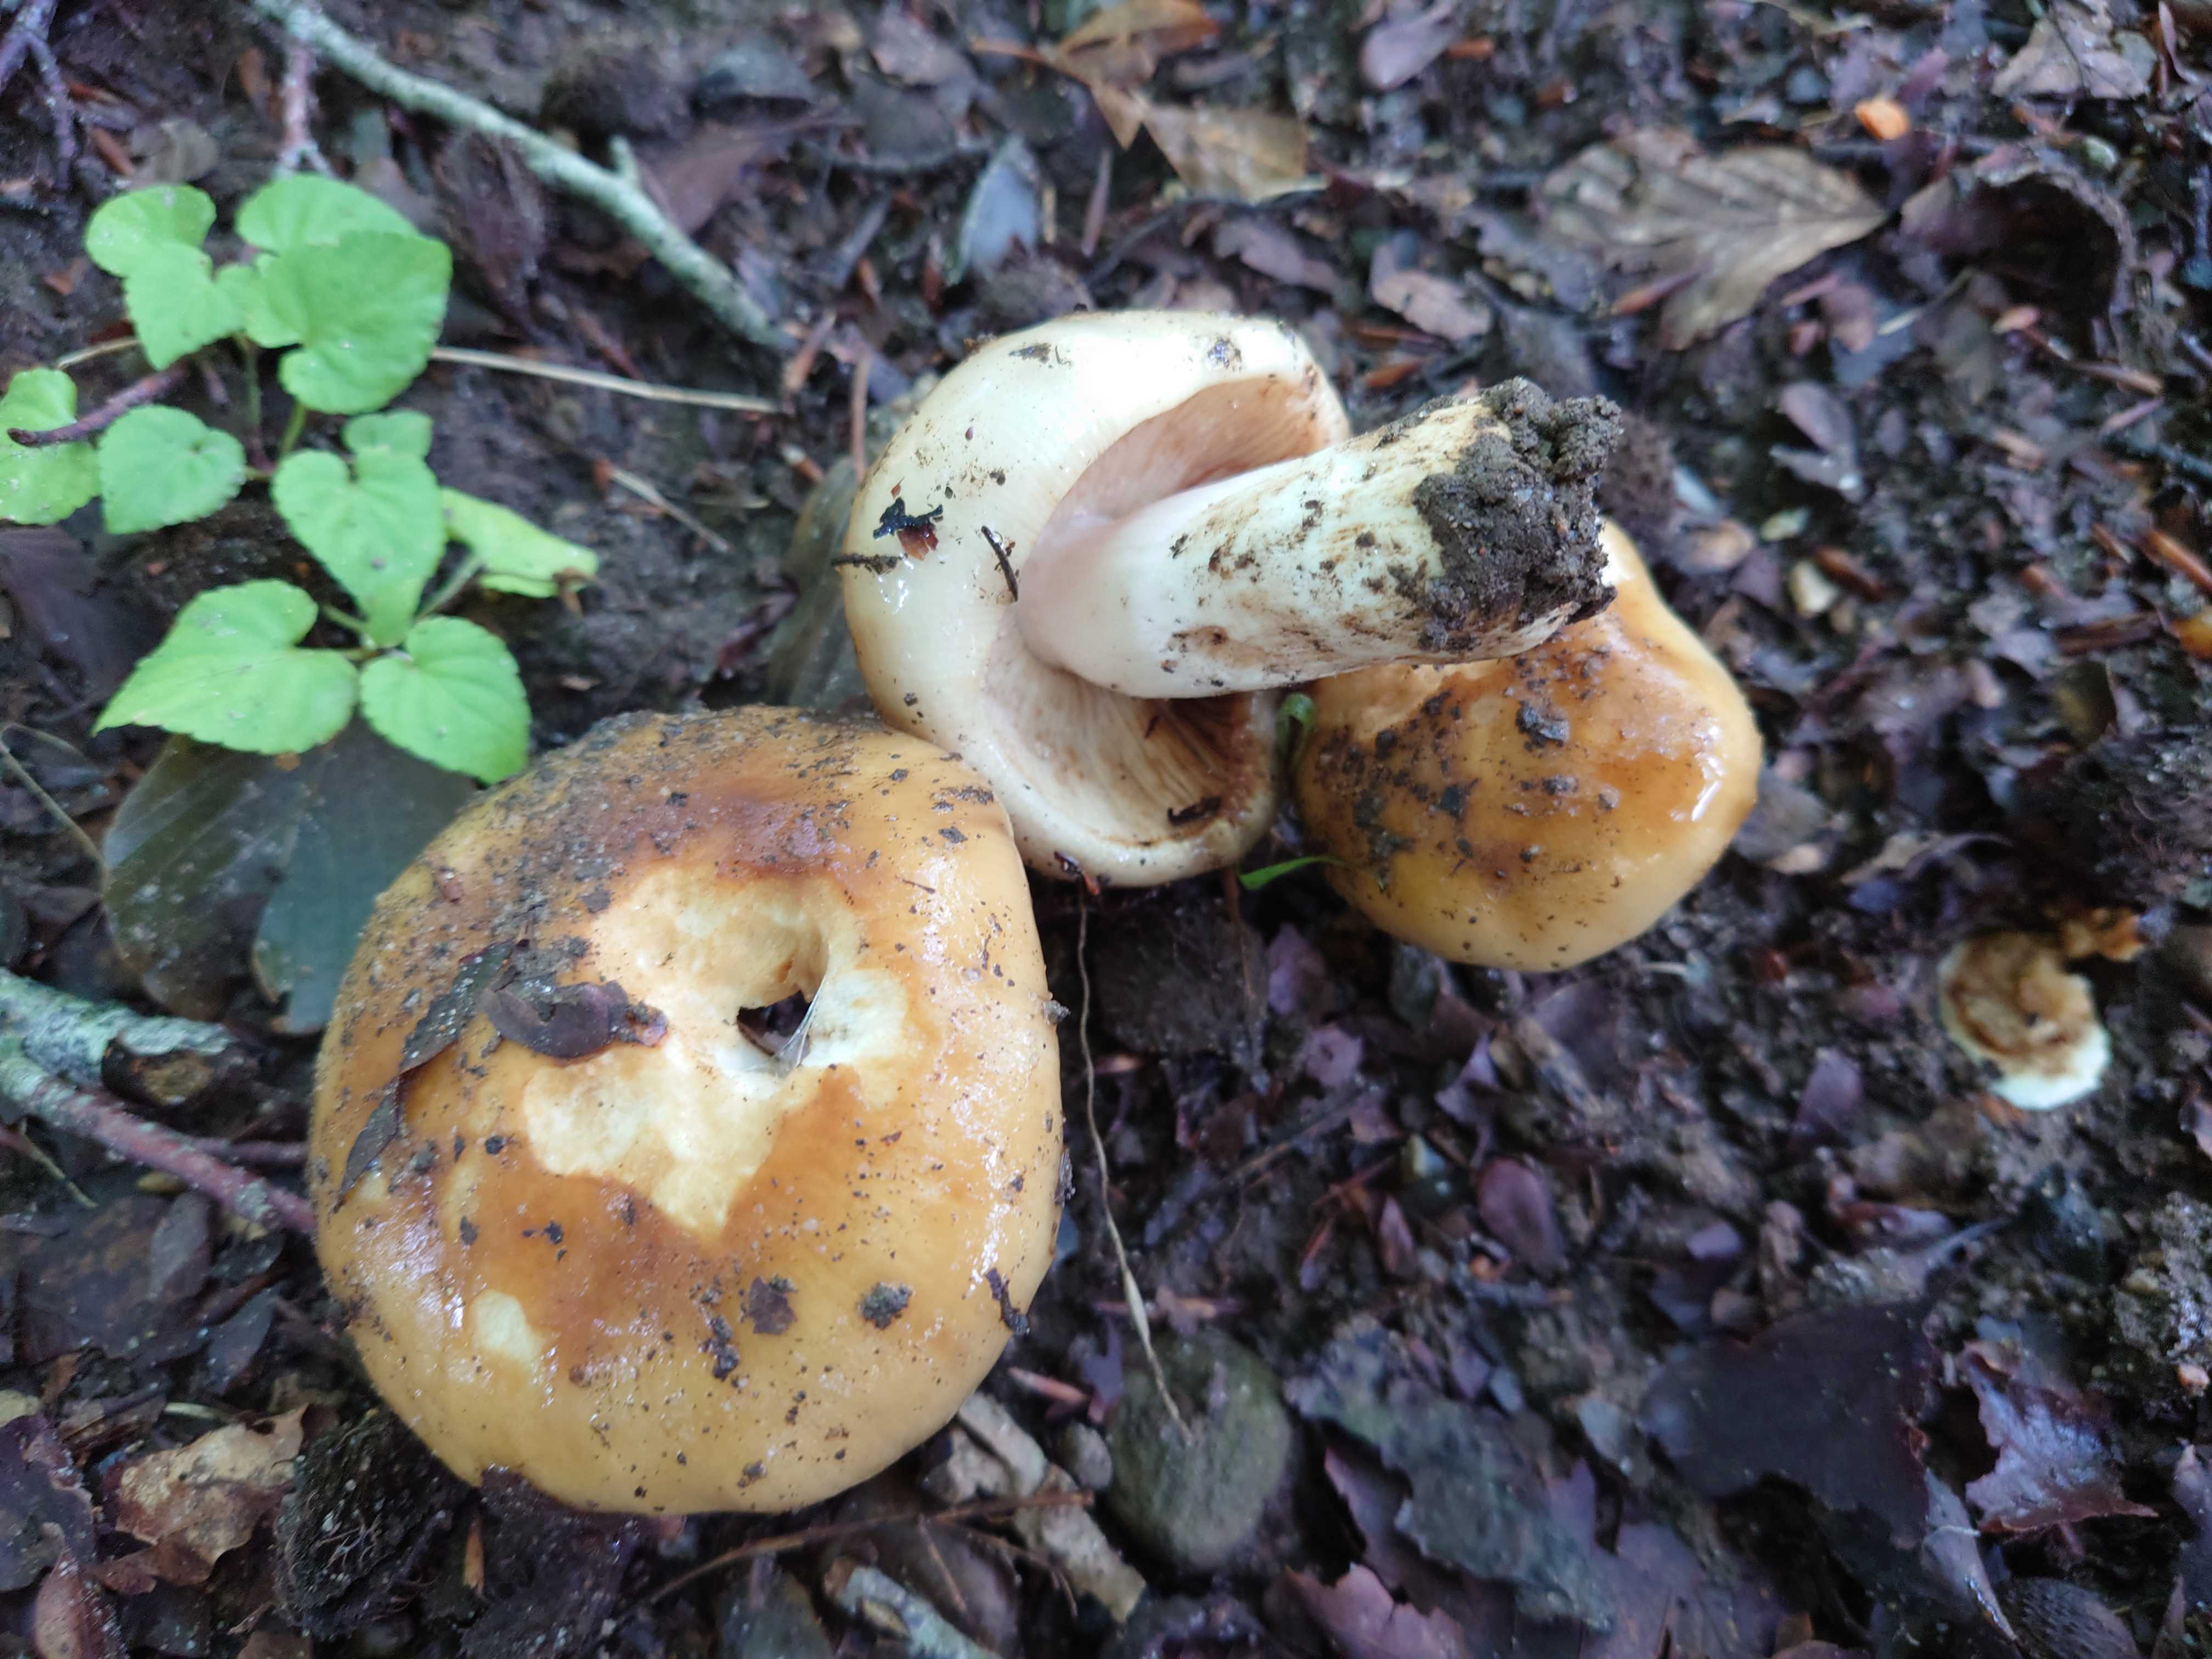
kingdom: Fungi
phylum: Basidiomycota
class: Agaricomycetes
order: Russulales
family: Russulaceae
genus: Russula
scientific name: Russula foetens
